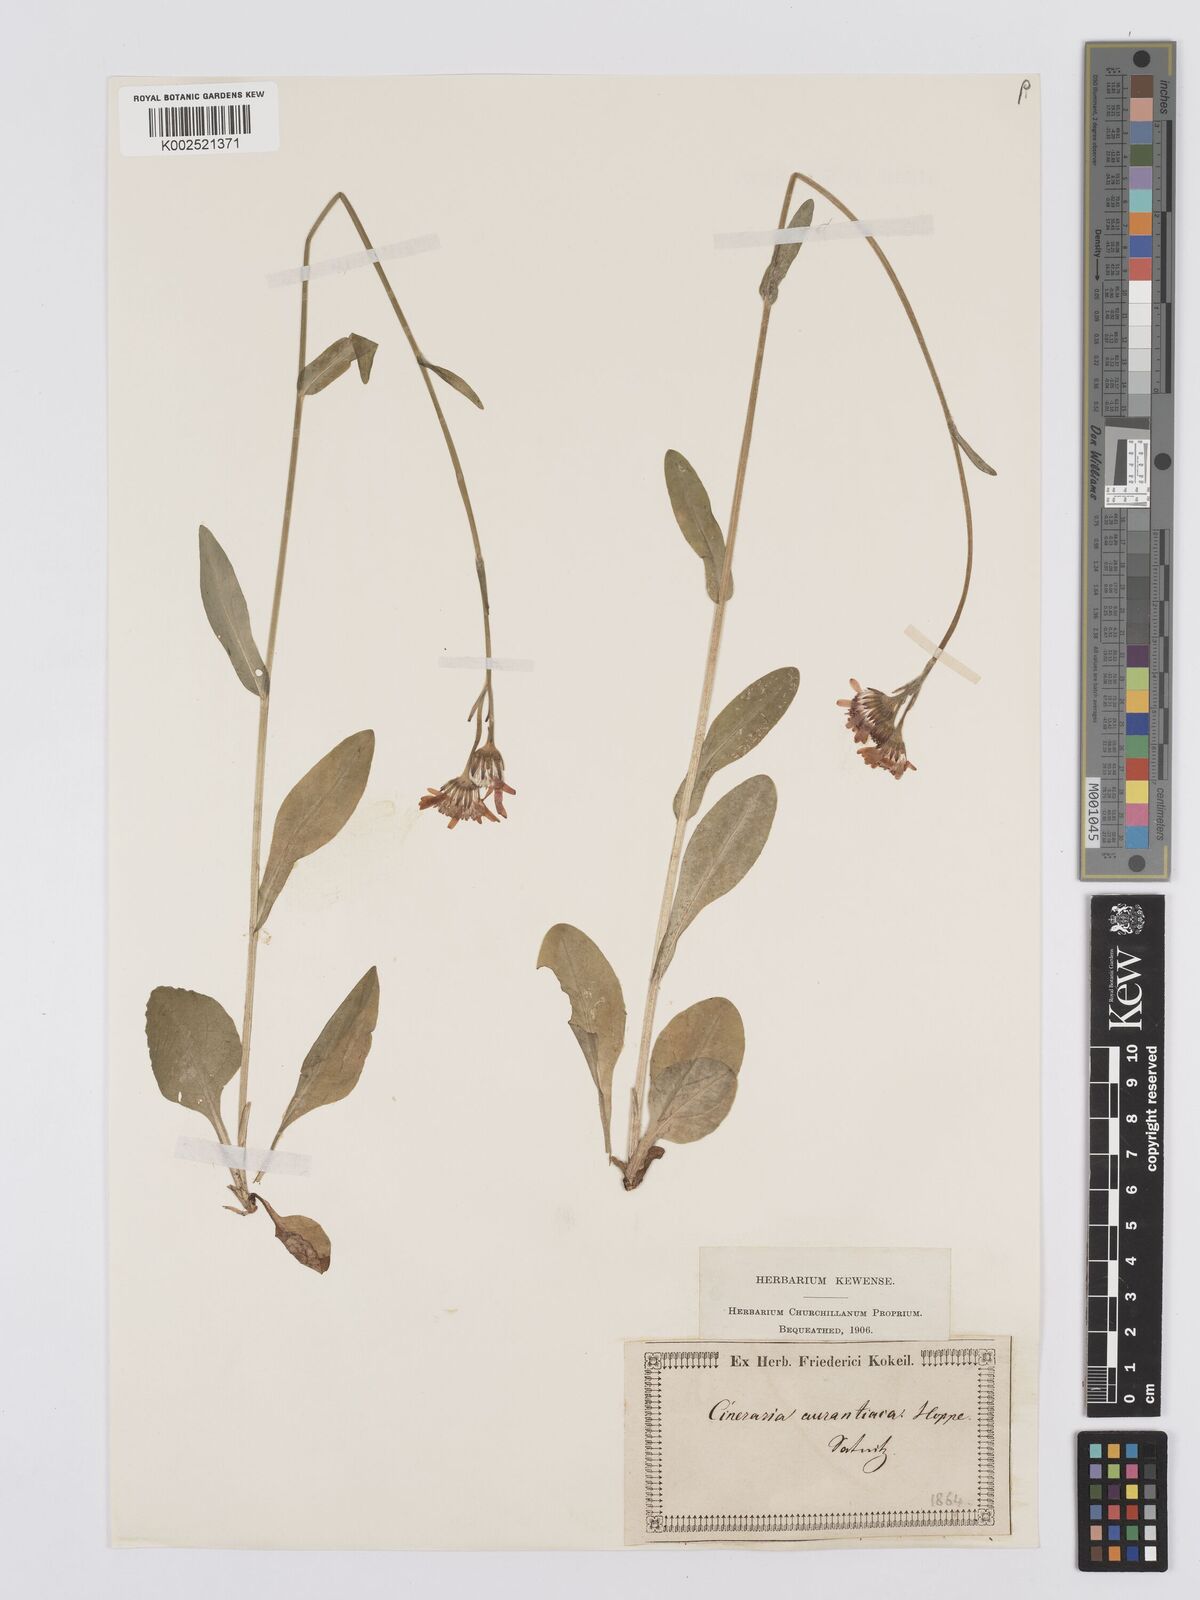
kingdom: Plantae
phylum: Tracheophyta
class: Magnoliopsida
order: Asterales
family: Asteraceae
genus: Tephroseris
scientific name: Tephroseris aurantiaca
